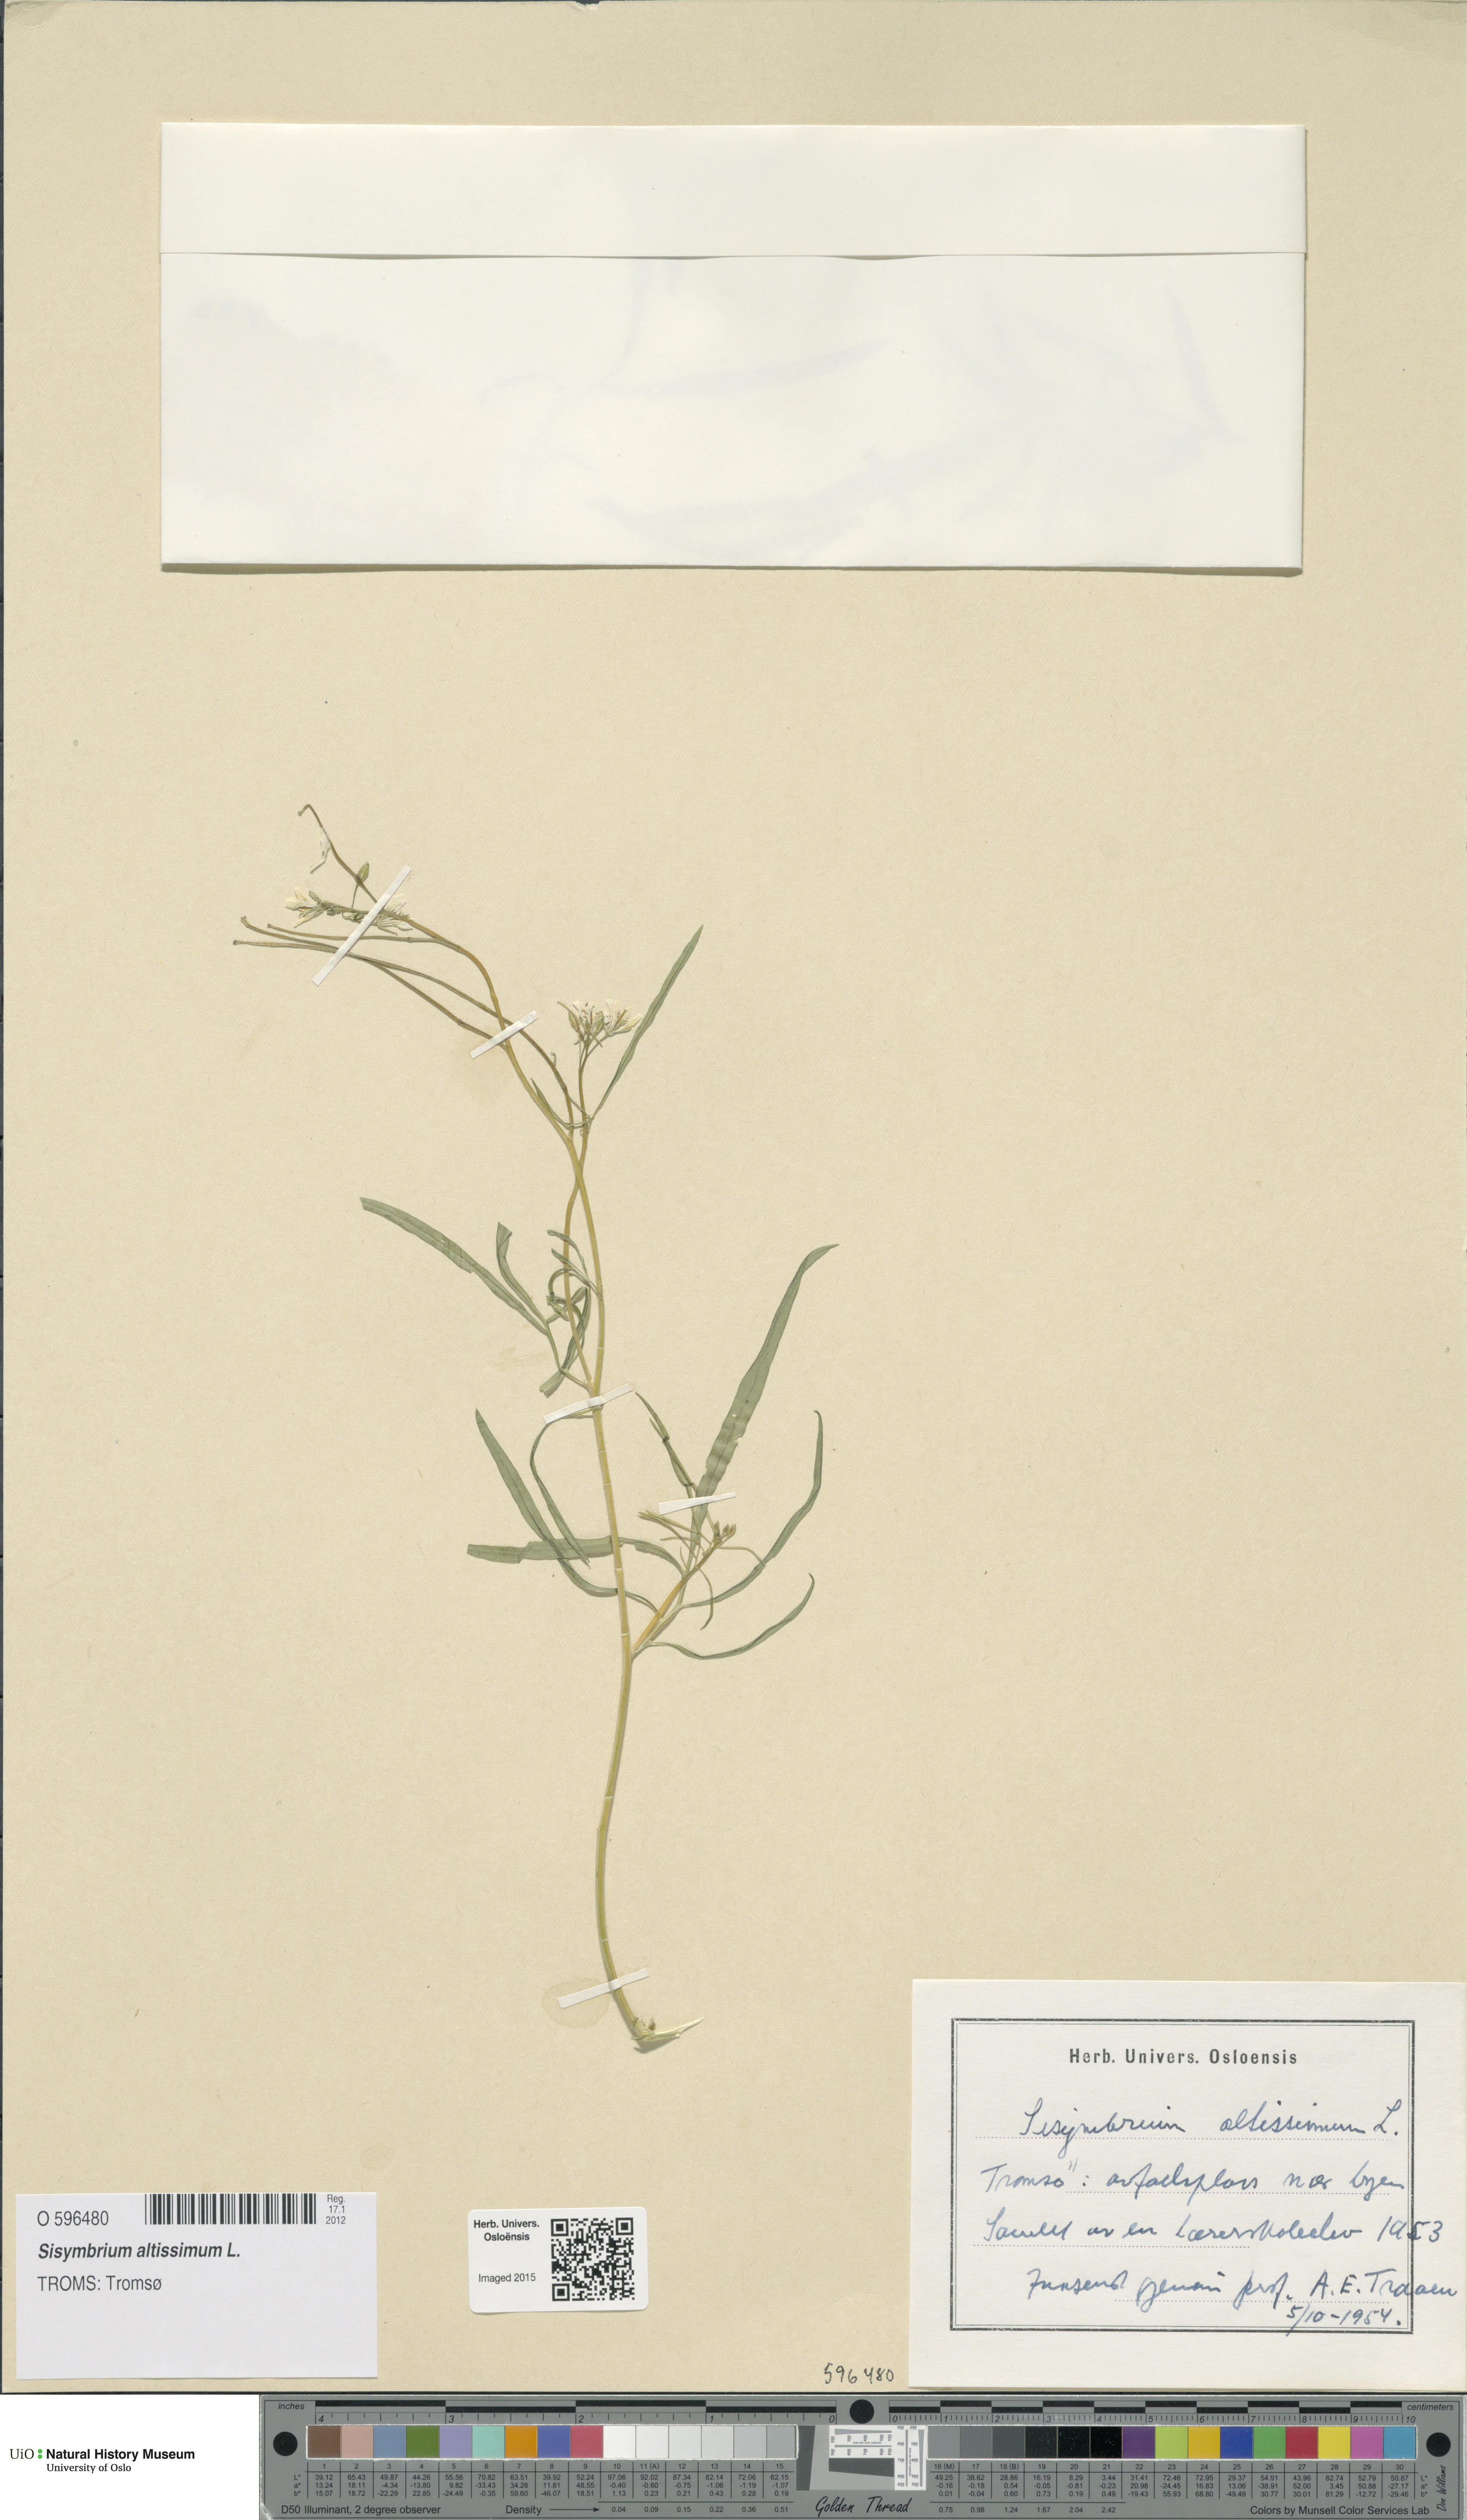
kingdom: Plantae
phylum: Tracheophyta
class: Magnoliopsida
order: Brassicales
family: Brassicaceae
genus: Sisymbrium
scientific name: Sisymbrium altissimum
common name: Tall rocket
